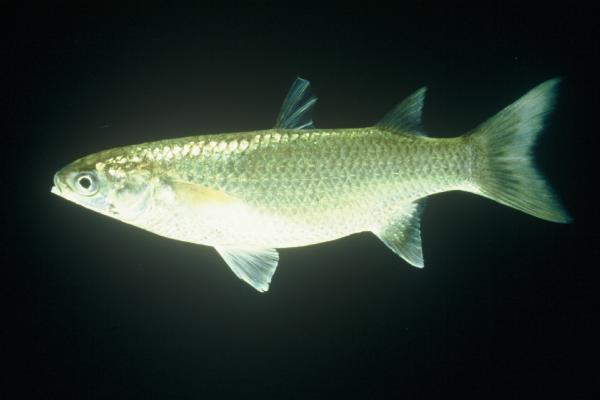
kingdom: Animalia
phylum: Chordata
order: Mugiliformes
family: Mugilidae
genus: Planiliza
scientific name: Planiliza macrolepis
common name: Largescale mullet
